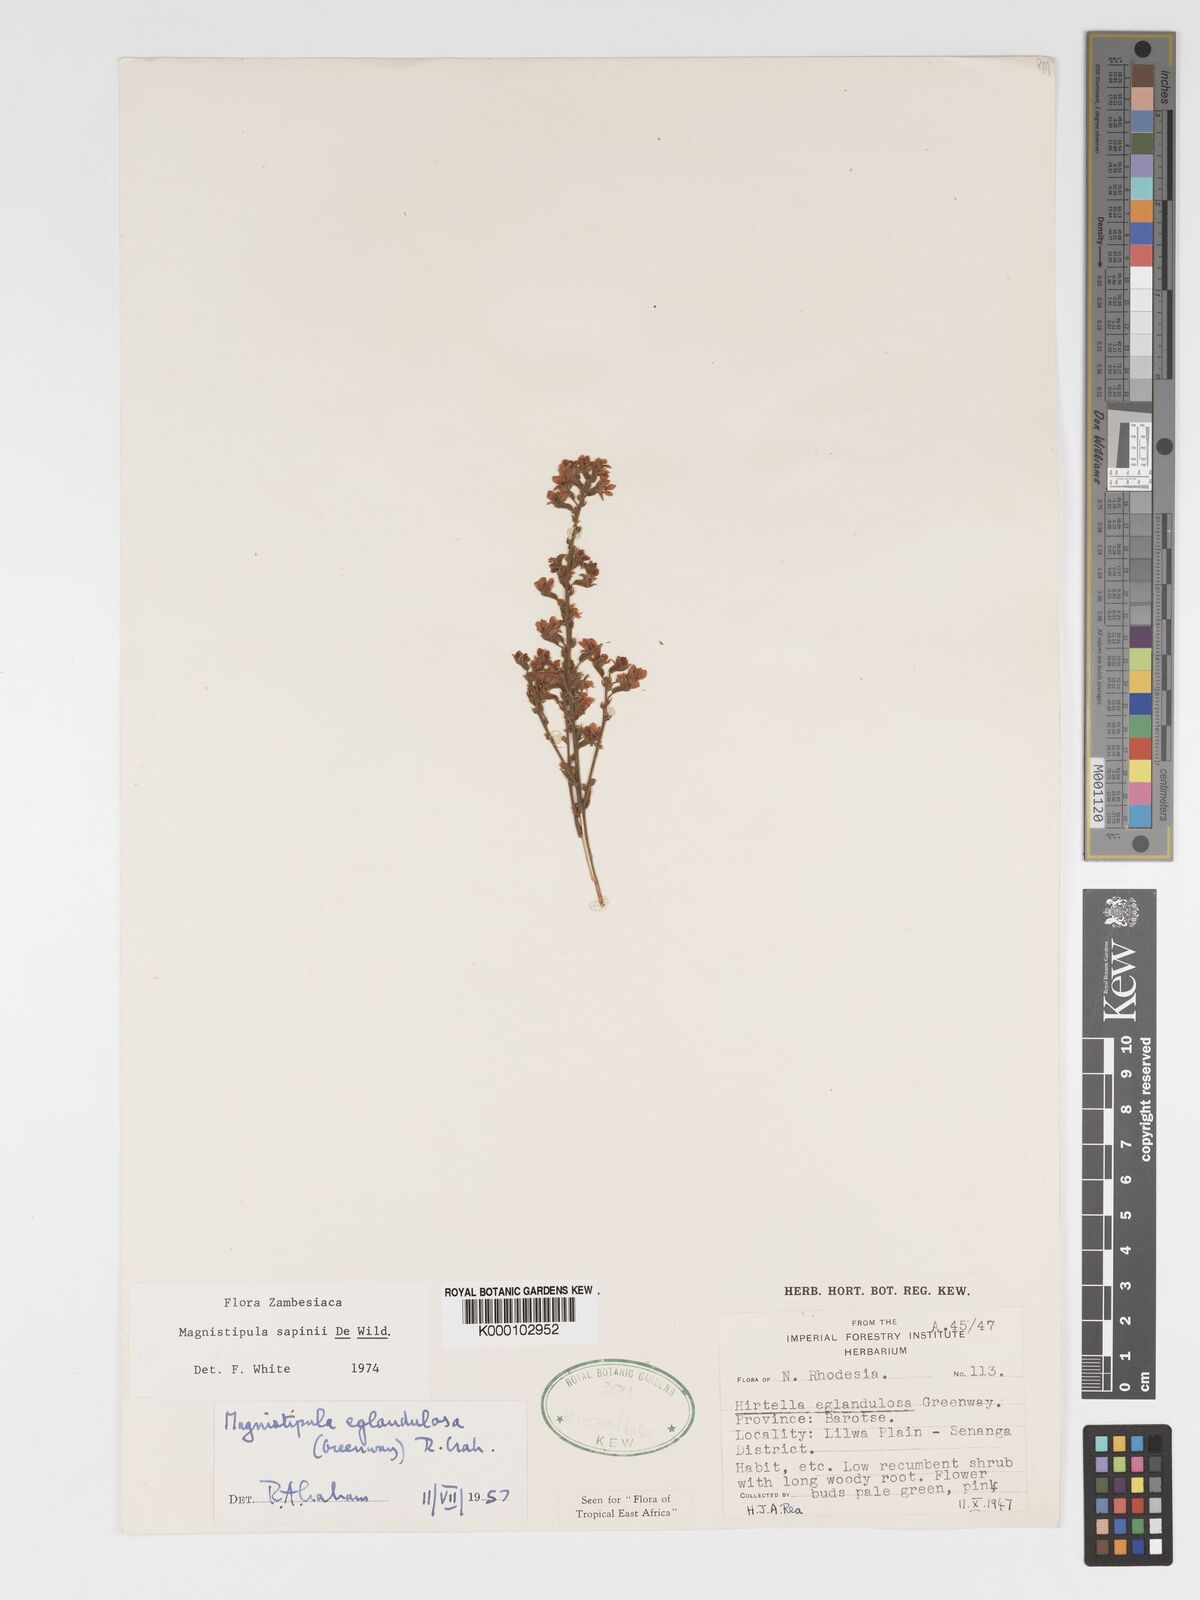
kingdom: Plantae
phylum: Tracheophyta
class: Magnoliopsida
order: Malpighiales
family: Chrysobalanaceae
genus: Magnistipula
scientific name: Magnistipula sapinii
